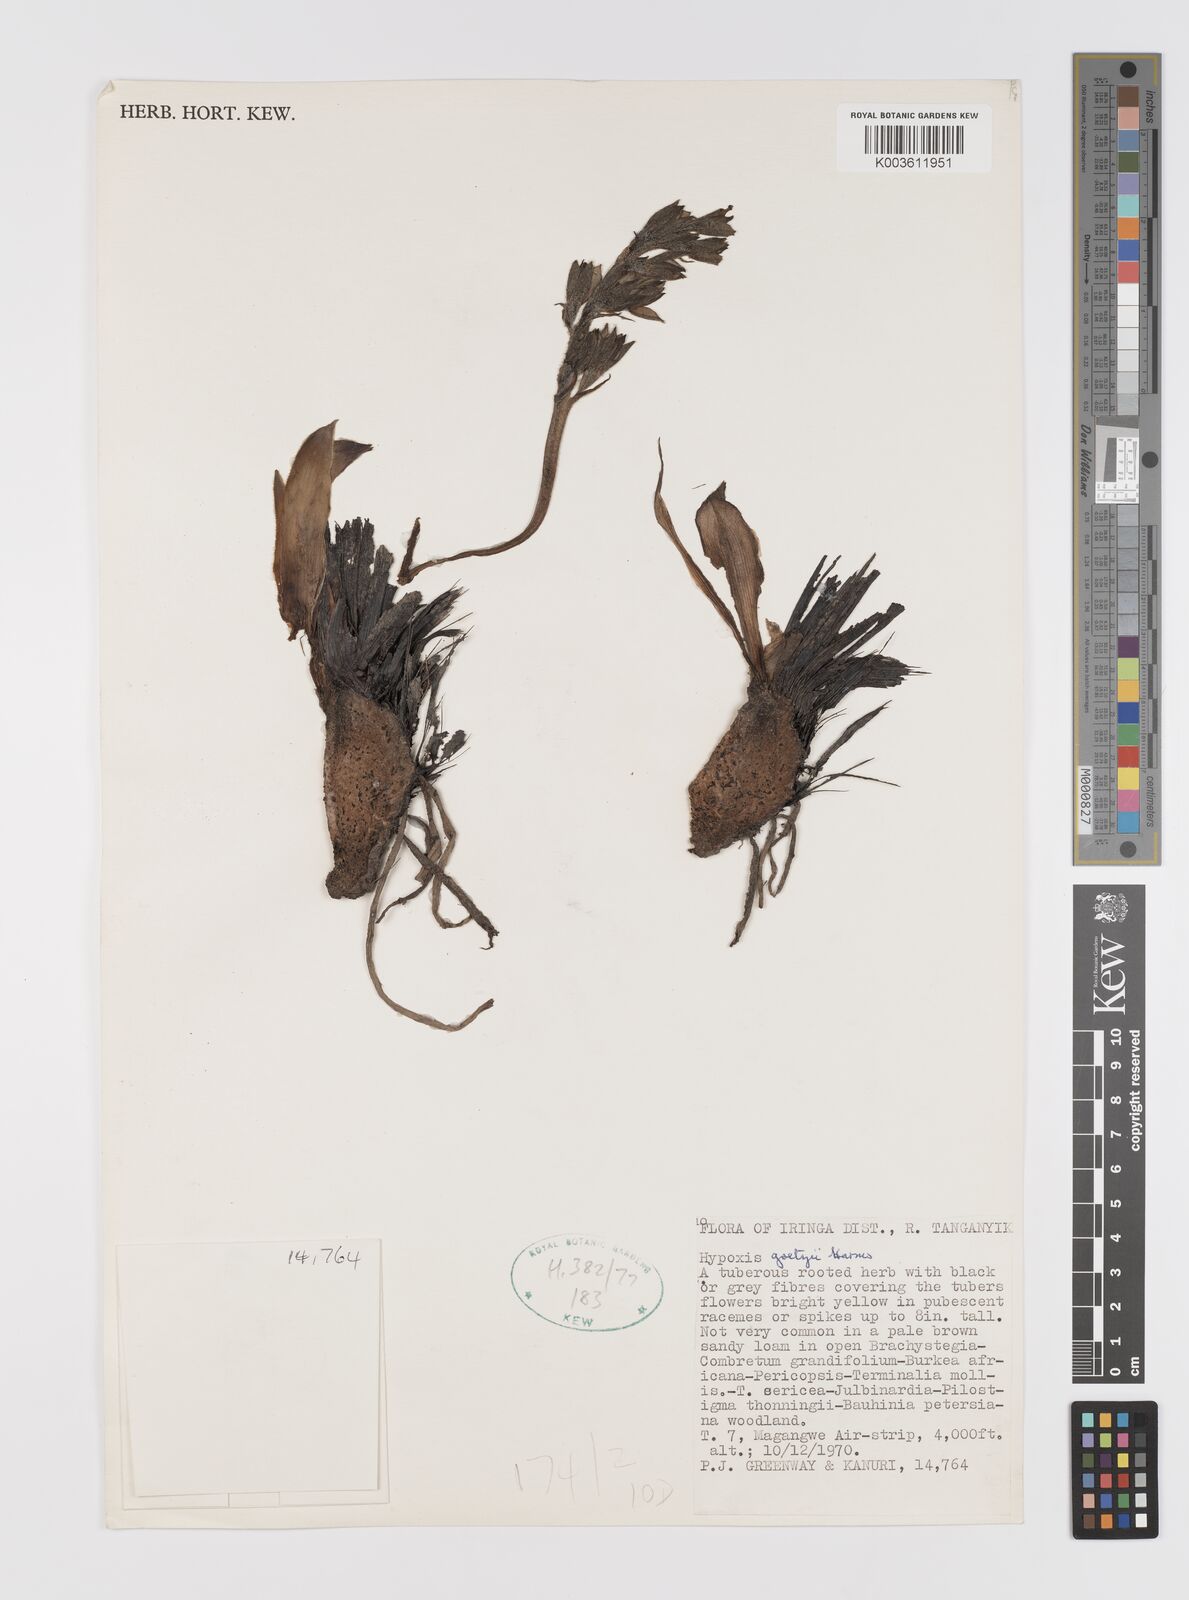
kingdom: Plantae
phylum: Tracheophyta
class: Liliopsida
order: Asparagales
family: Hypoxidaceae
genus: Hypoxis
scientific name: Hypoxis goetzei
